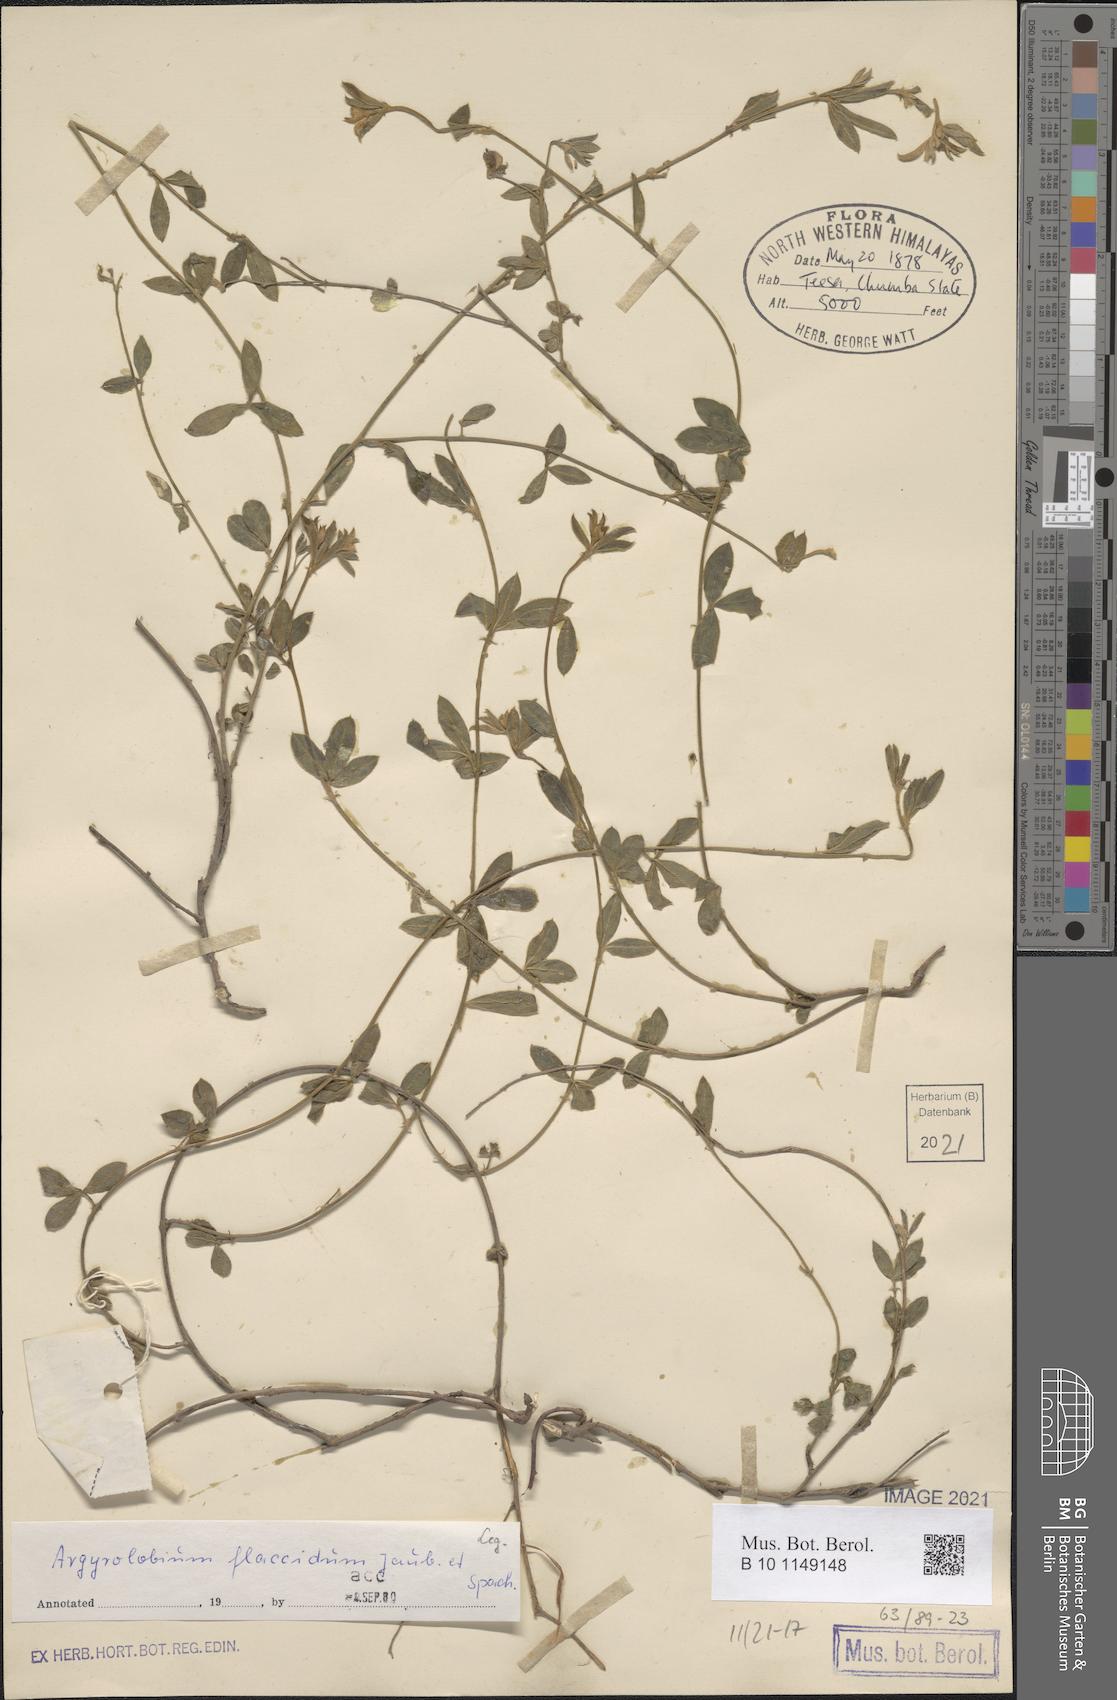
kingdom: Plantae
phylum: Tracheophyta
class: Magnoliopsida
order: Fabales
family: Fabaceae
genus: Argyrolobium
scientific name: Argyrolobium flaccidum
